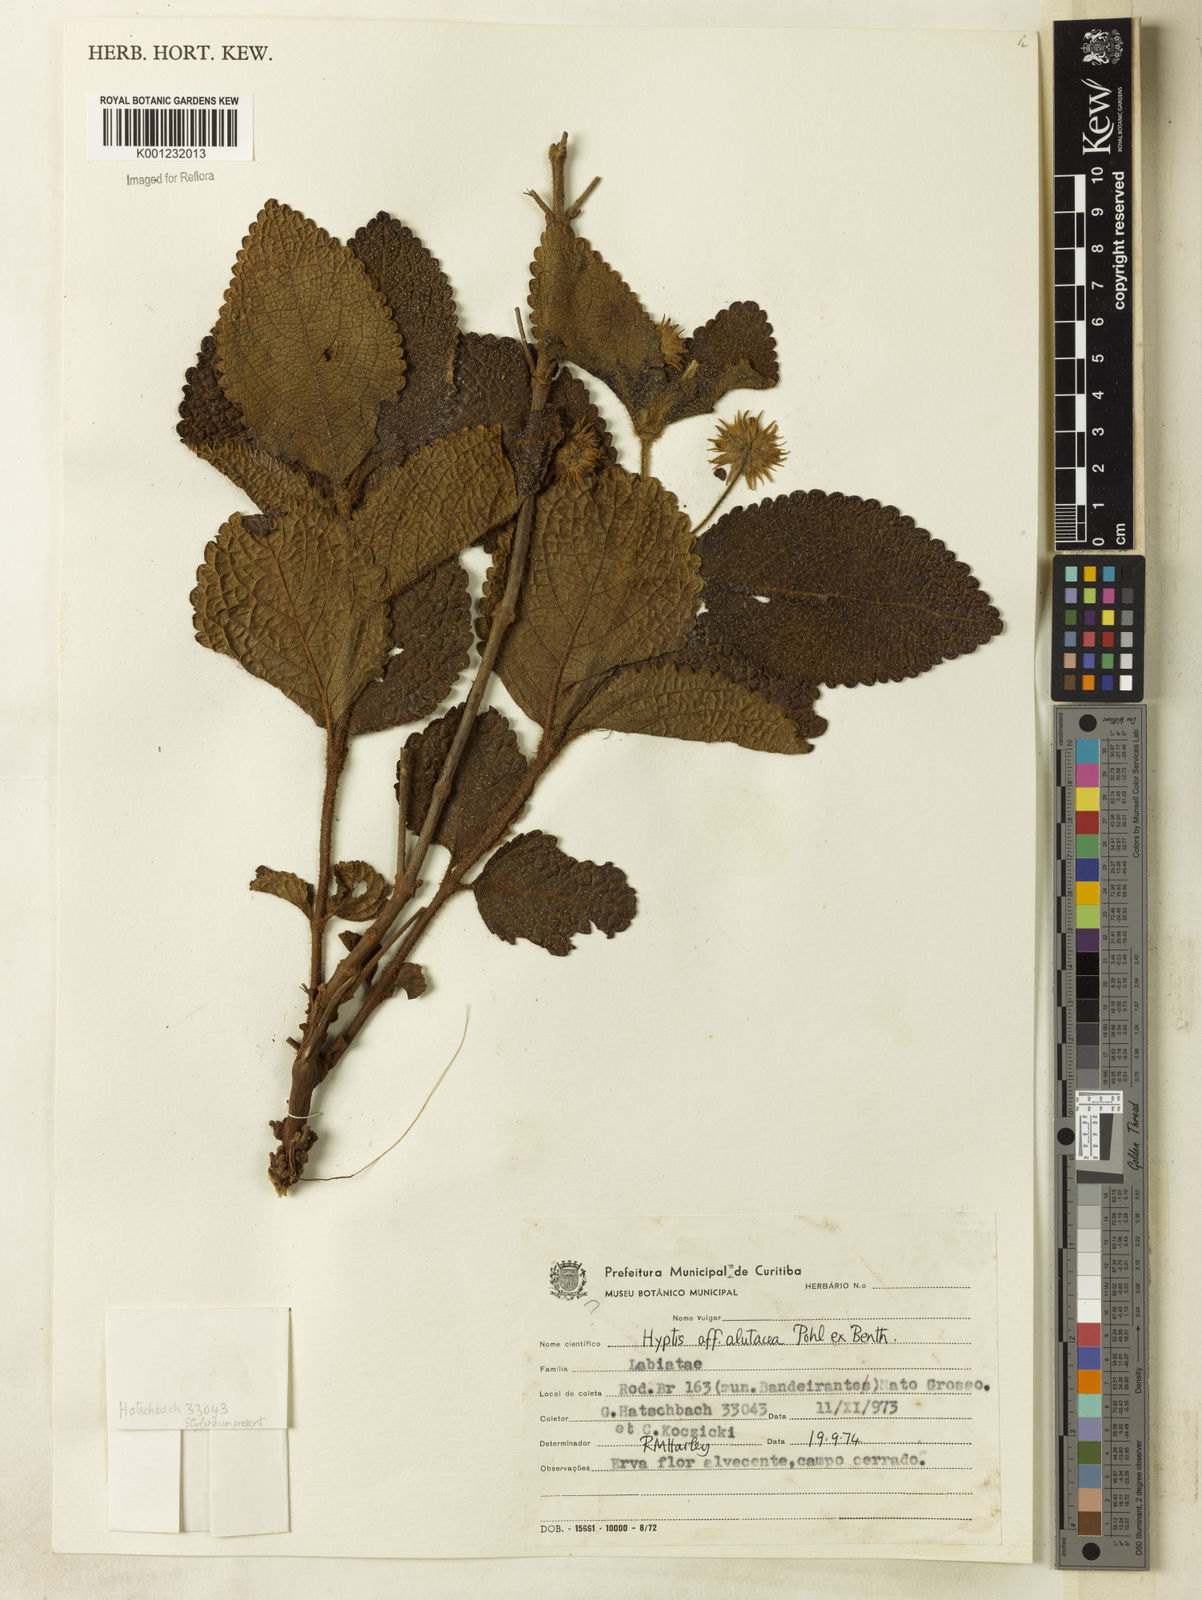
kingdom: Plantae
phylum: Tracheophyta
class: Magnoliopsida
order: Lamiales
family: Lamiaceae
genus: Hyptis
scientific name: Hyptis alutacea
